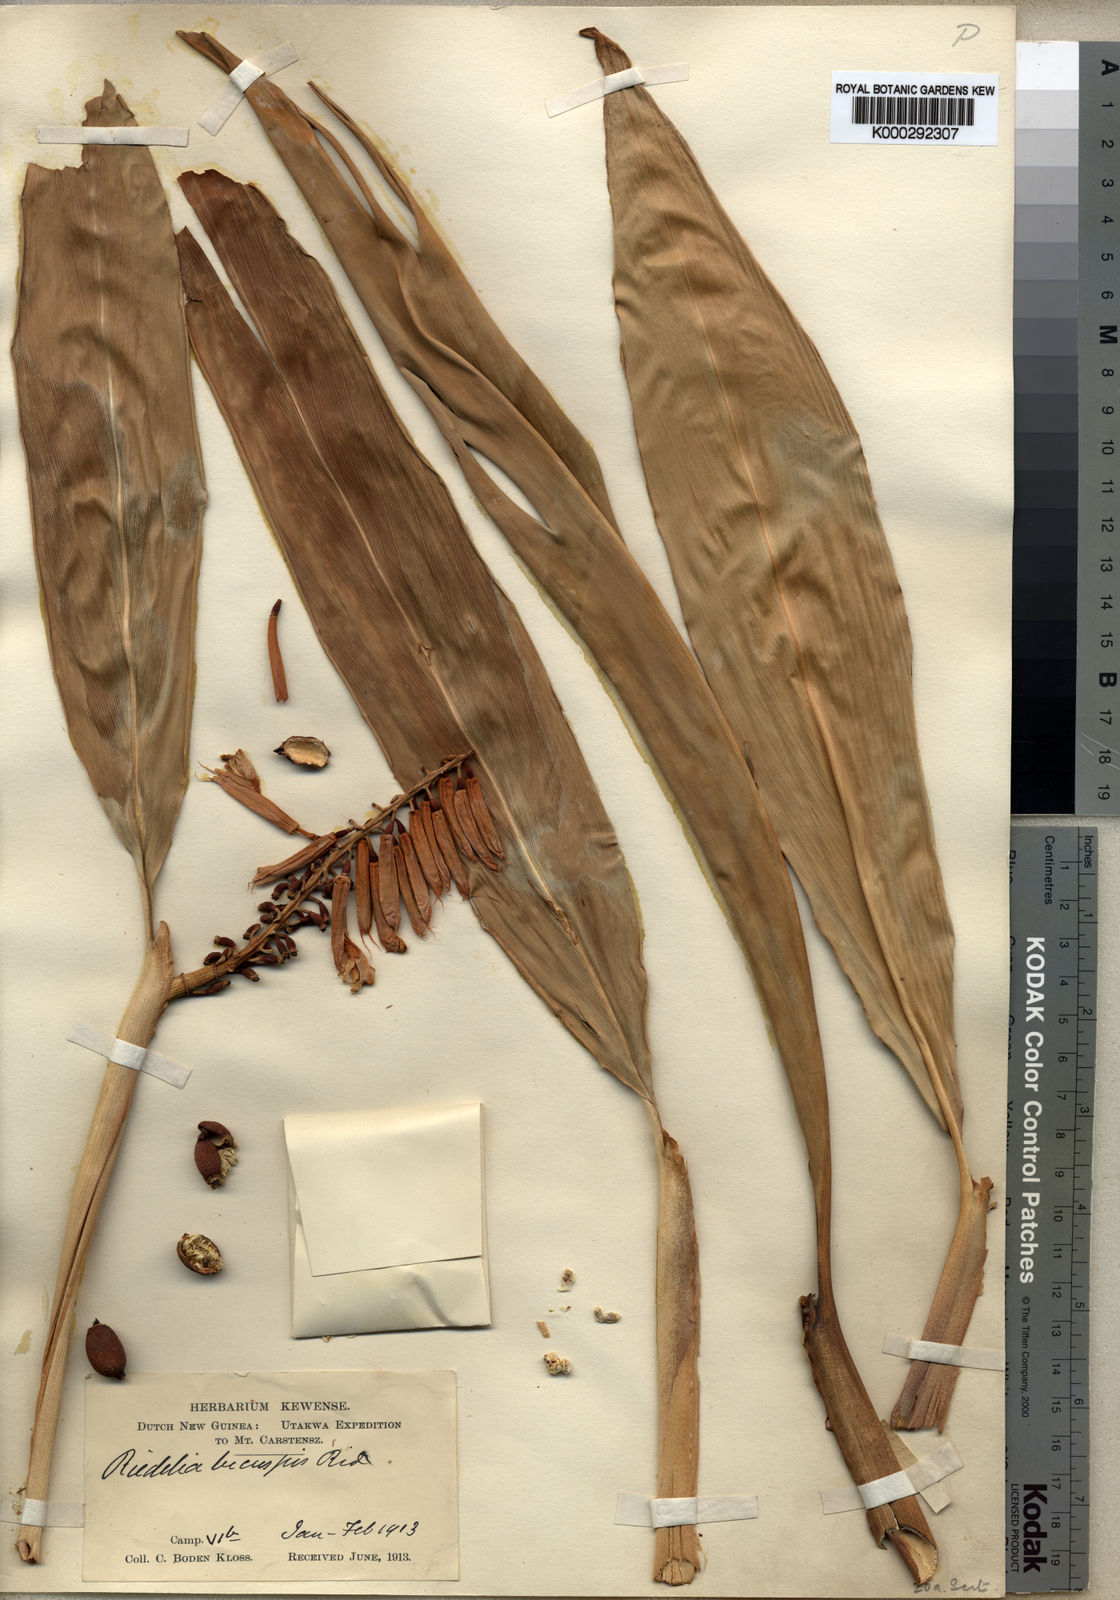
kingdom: Plantae
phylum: Tracheophyta
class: Liliopsida
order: Zingiberales
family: Zingiberaceae
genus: Riedelia
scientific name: Riedelia bicuspis
